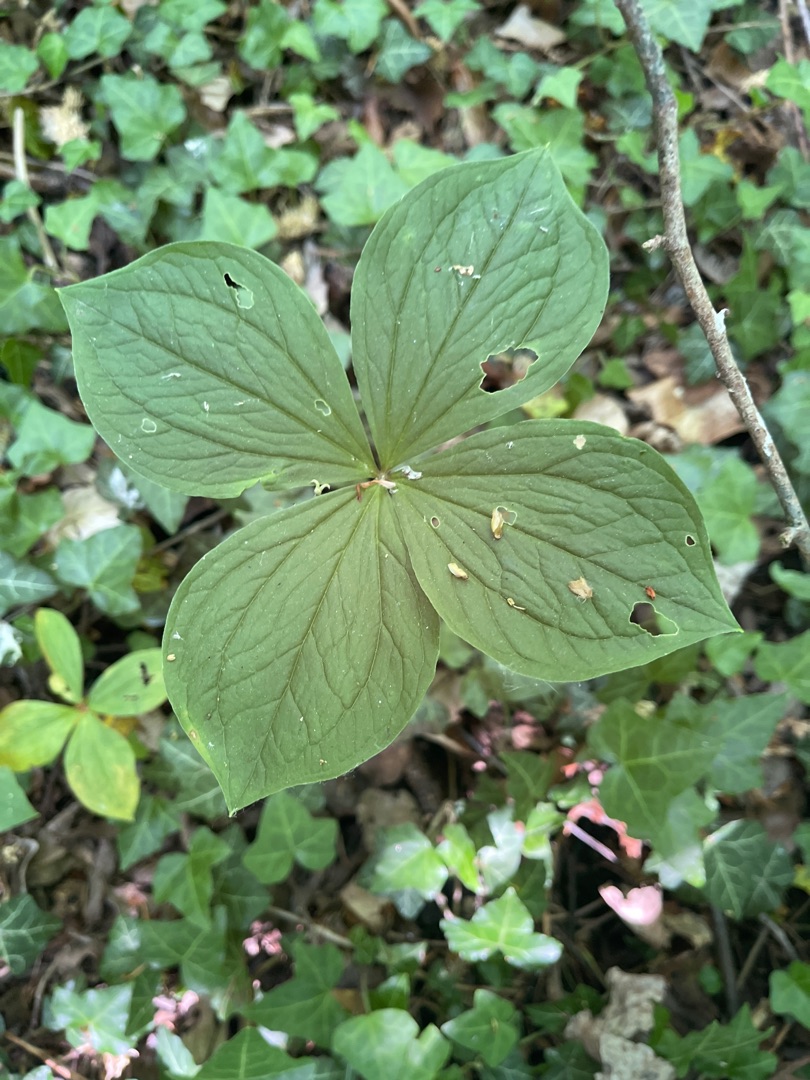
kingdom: Plantae
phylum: Tracheophyta
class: Liliopsida
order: Liliales
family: Melanthiaceae
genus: Paris
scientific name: Paris quadrifolia
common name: Firblad
